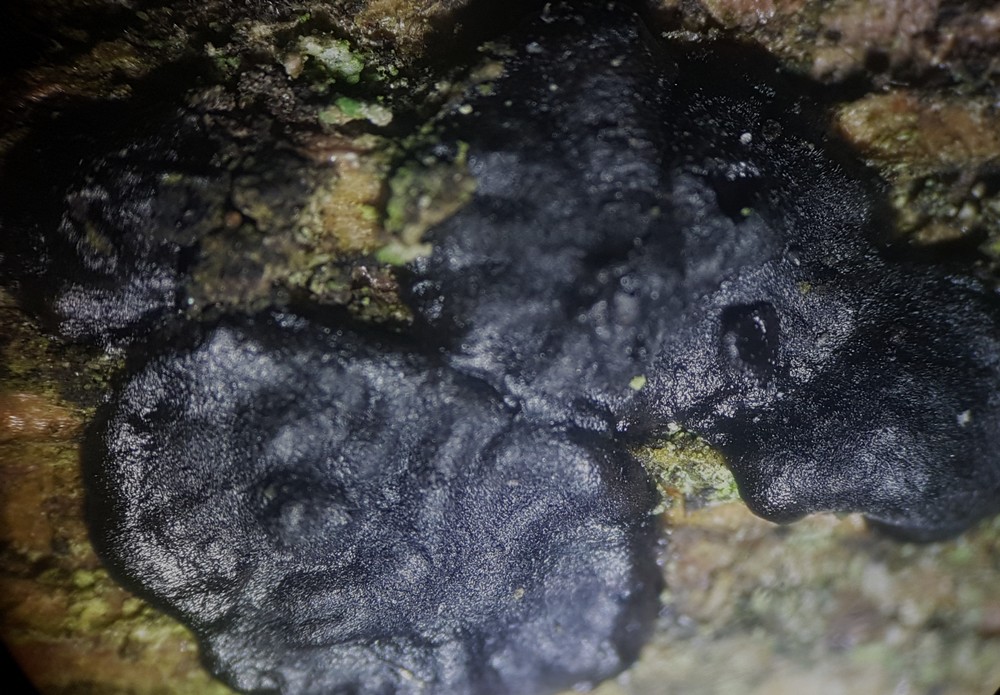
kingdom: Fungi
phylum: Basidiomycota
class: Agaricomycetes
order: Auriculariales
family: Auriculariaceae
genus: Exidia
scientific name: Exidia pithya
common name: gran-bævretop
